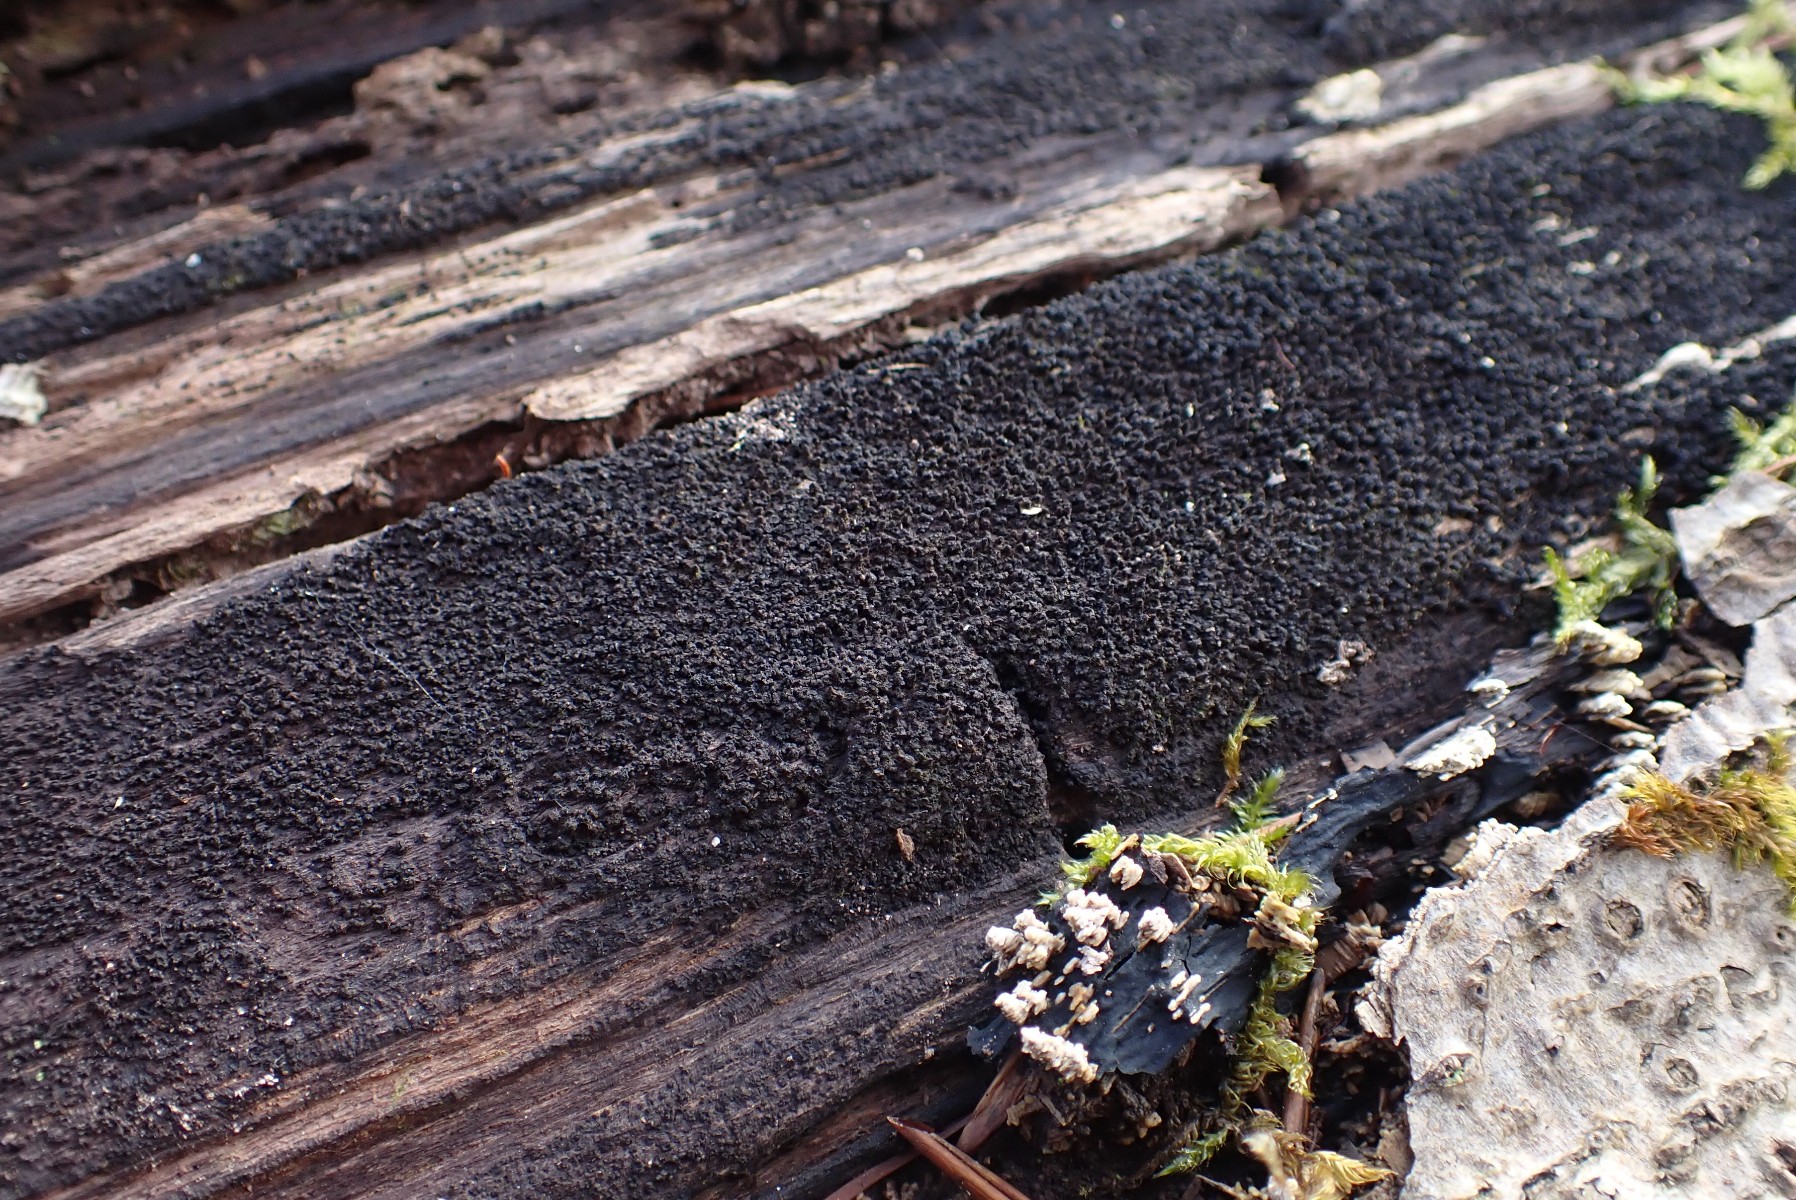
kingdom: Fungi
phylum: Ascomycota
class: Sordariomycetes
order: Xylariales
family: Diatrypaceae
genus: Eutypa
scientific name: Eutypa spinosa
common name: grov kulskorpe
